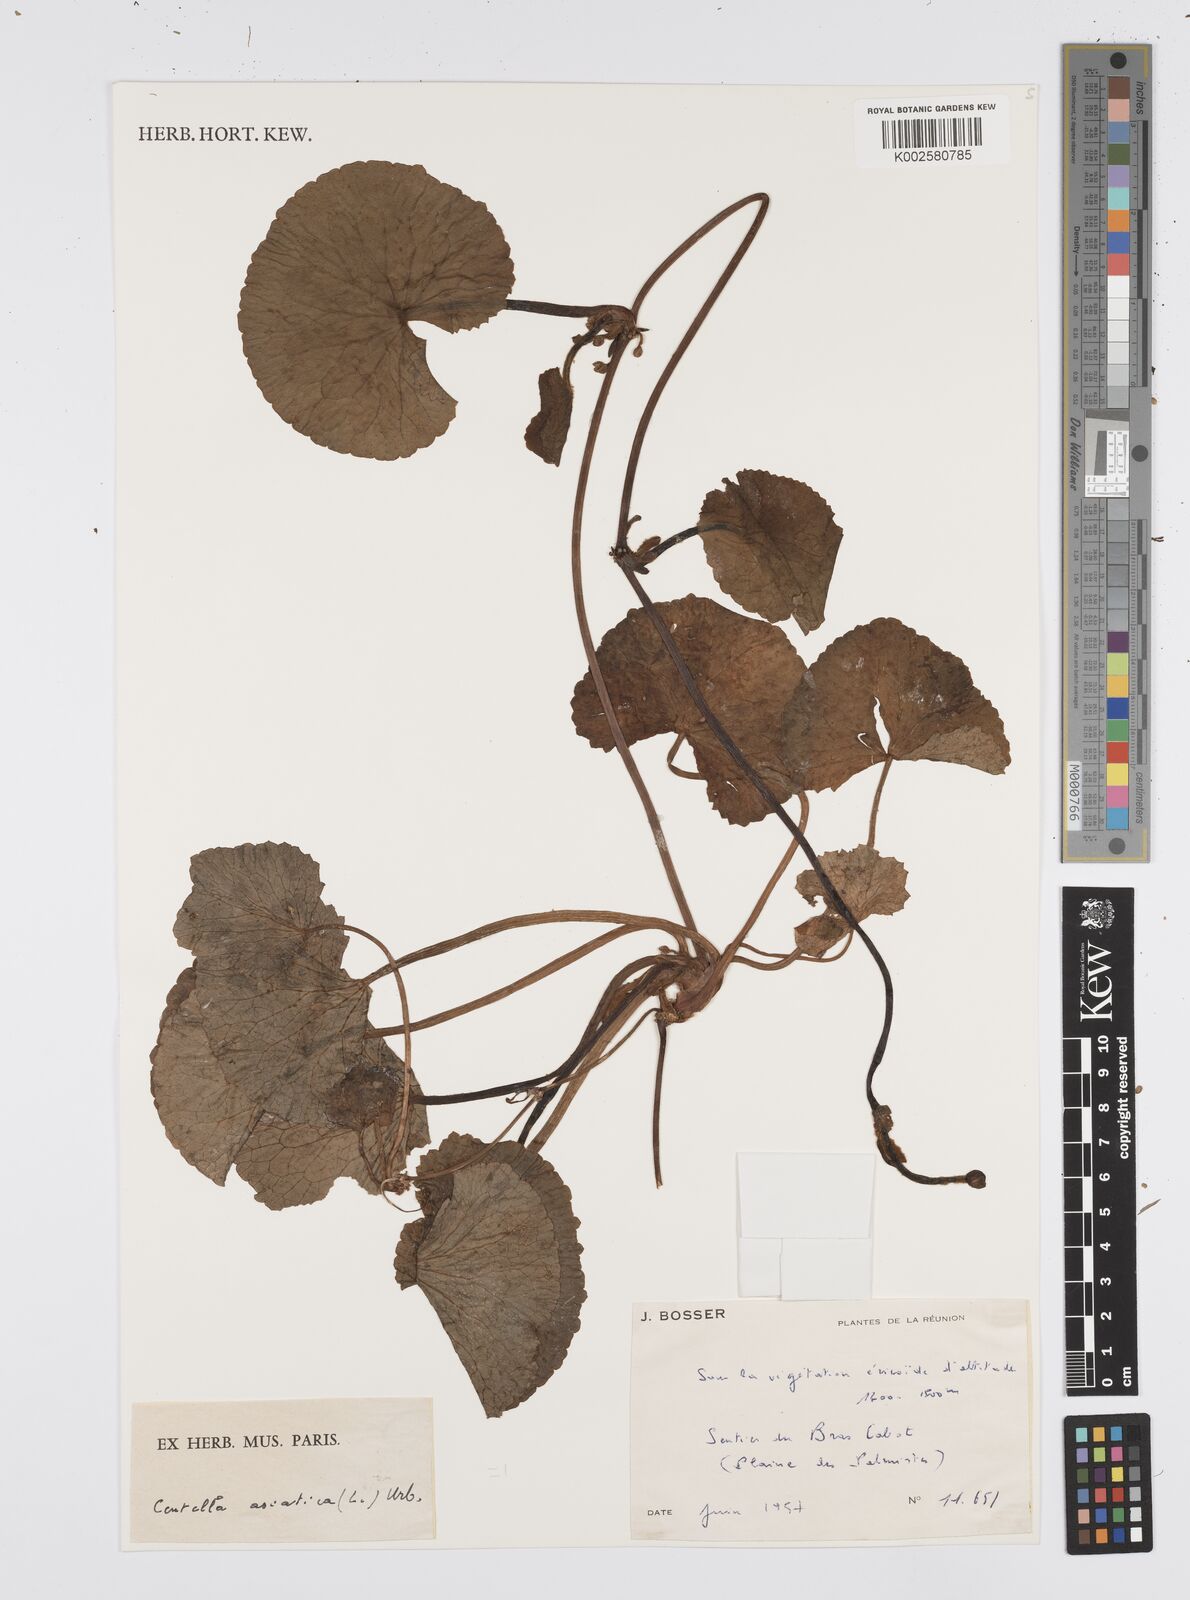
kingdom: Plantae
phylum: Tracheophyta
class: Magnoliopsida
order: Apiales
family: Apiaceae
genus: Centella
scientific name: Centella asiatica
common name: Spadeleaf
